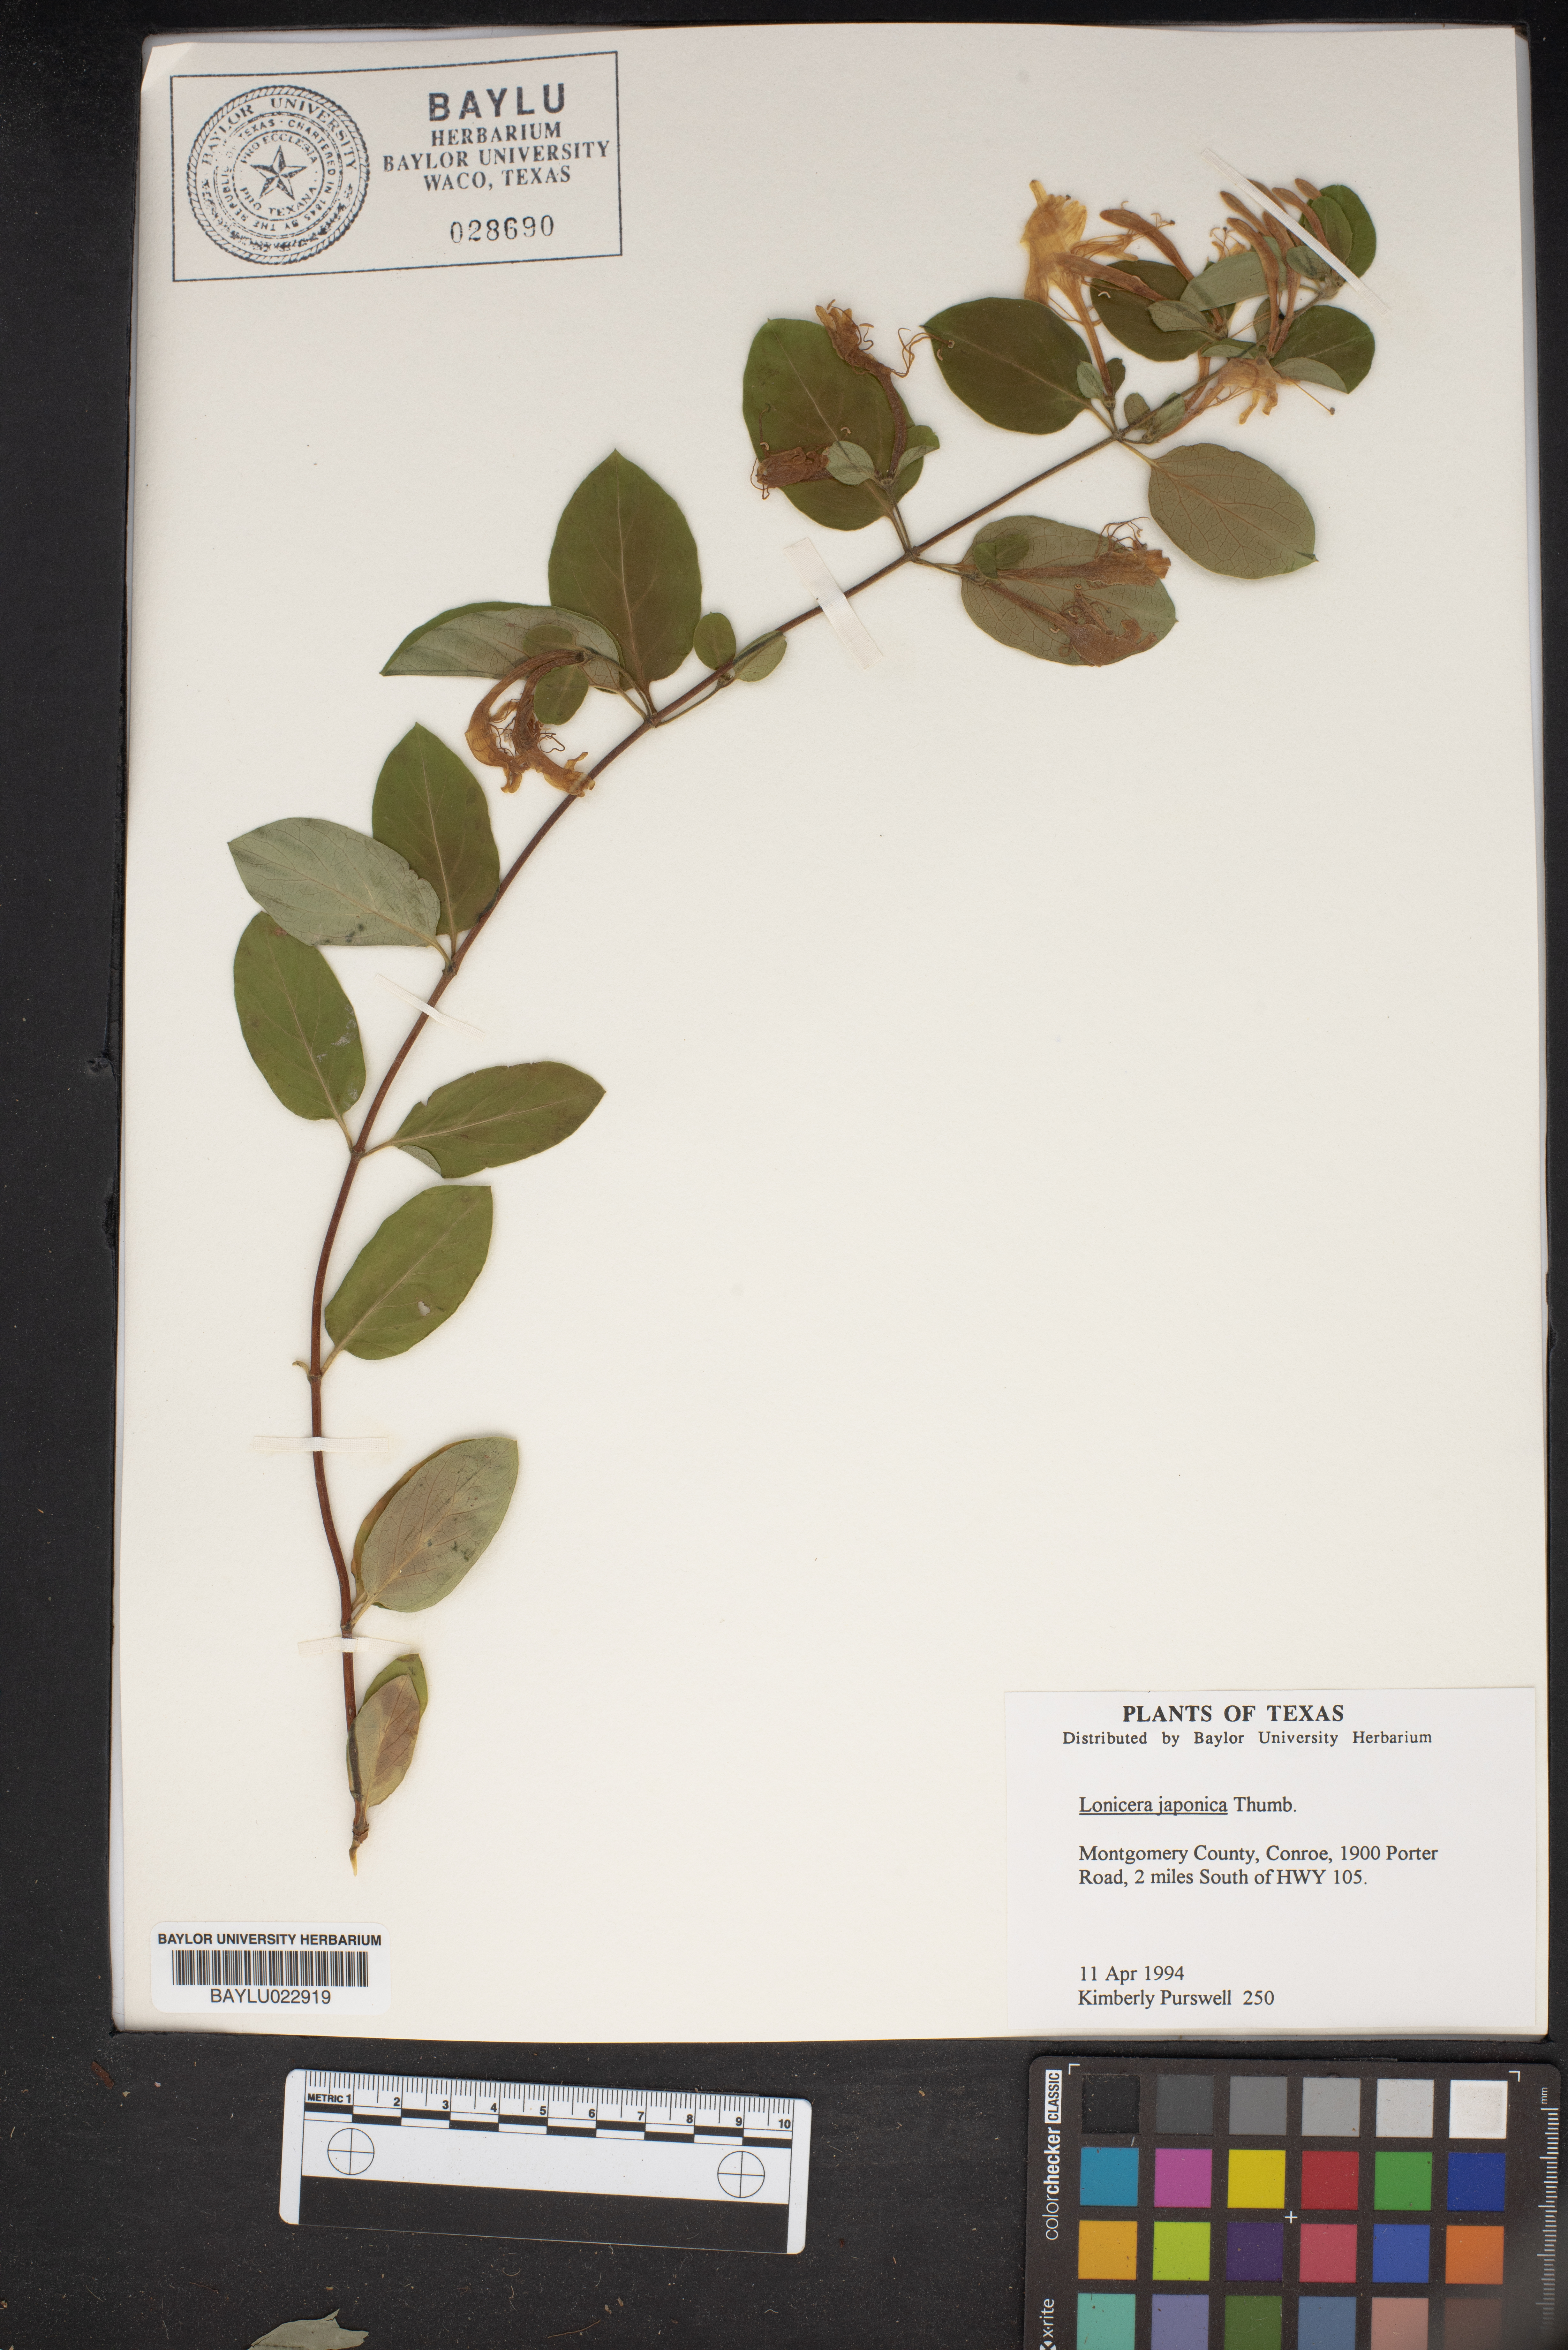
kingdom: Plantae
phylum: Tracheophyta
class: Magnoliopsida
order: Dipsacales
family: Caprifoliaceae
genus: Lonicera
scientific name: Lonicera japonica
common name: Japanese honeysuckle
